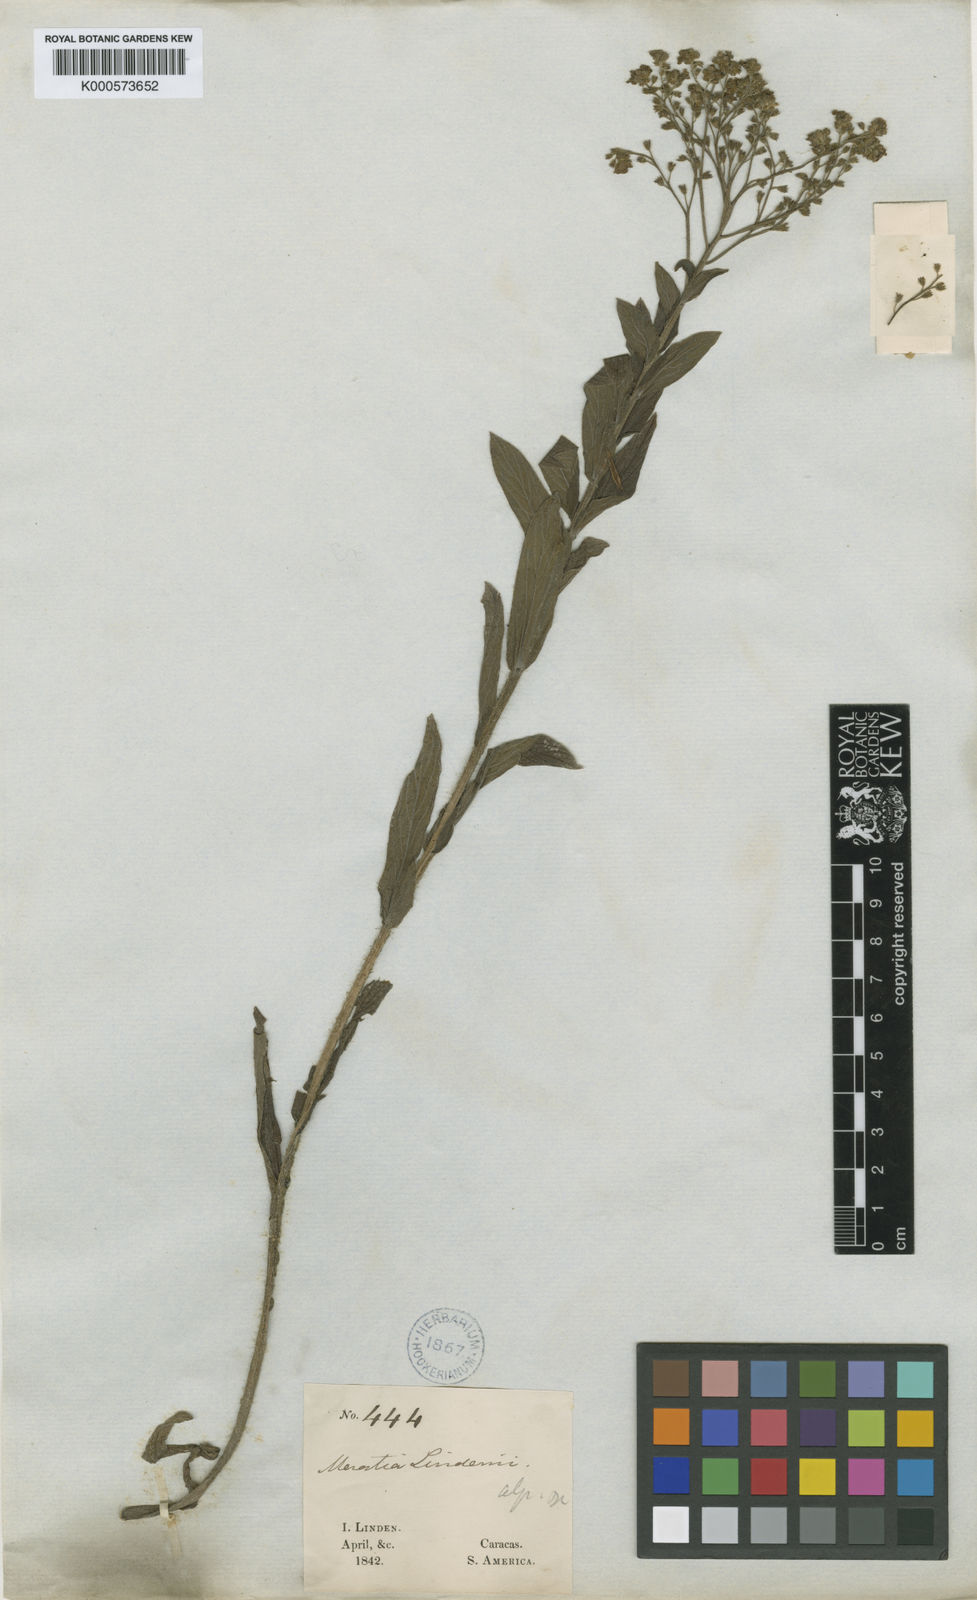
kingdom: Plantae
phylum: Tracheophyta
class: Magnoliopsida
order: Boraginales
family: Boraginaceae
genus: Moritzia
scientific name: Moritzia
